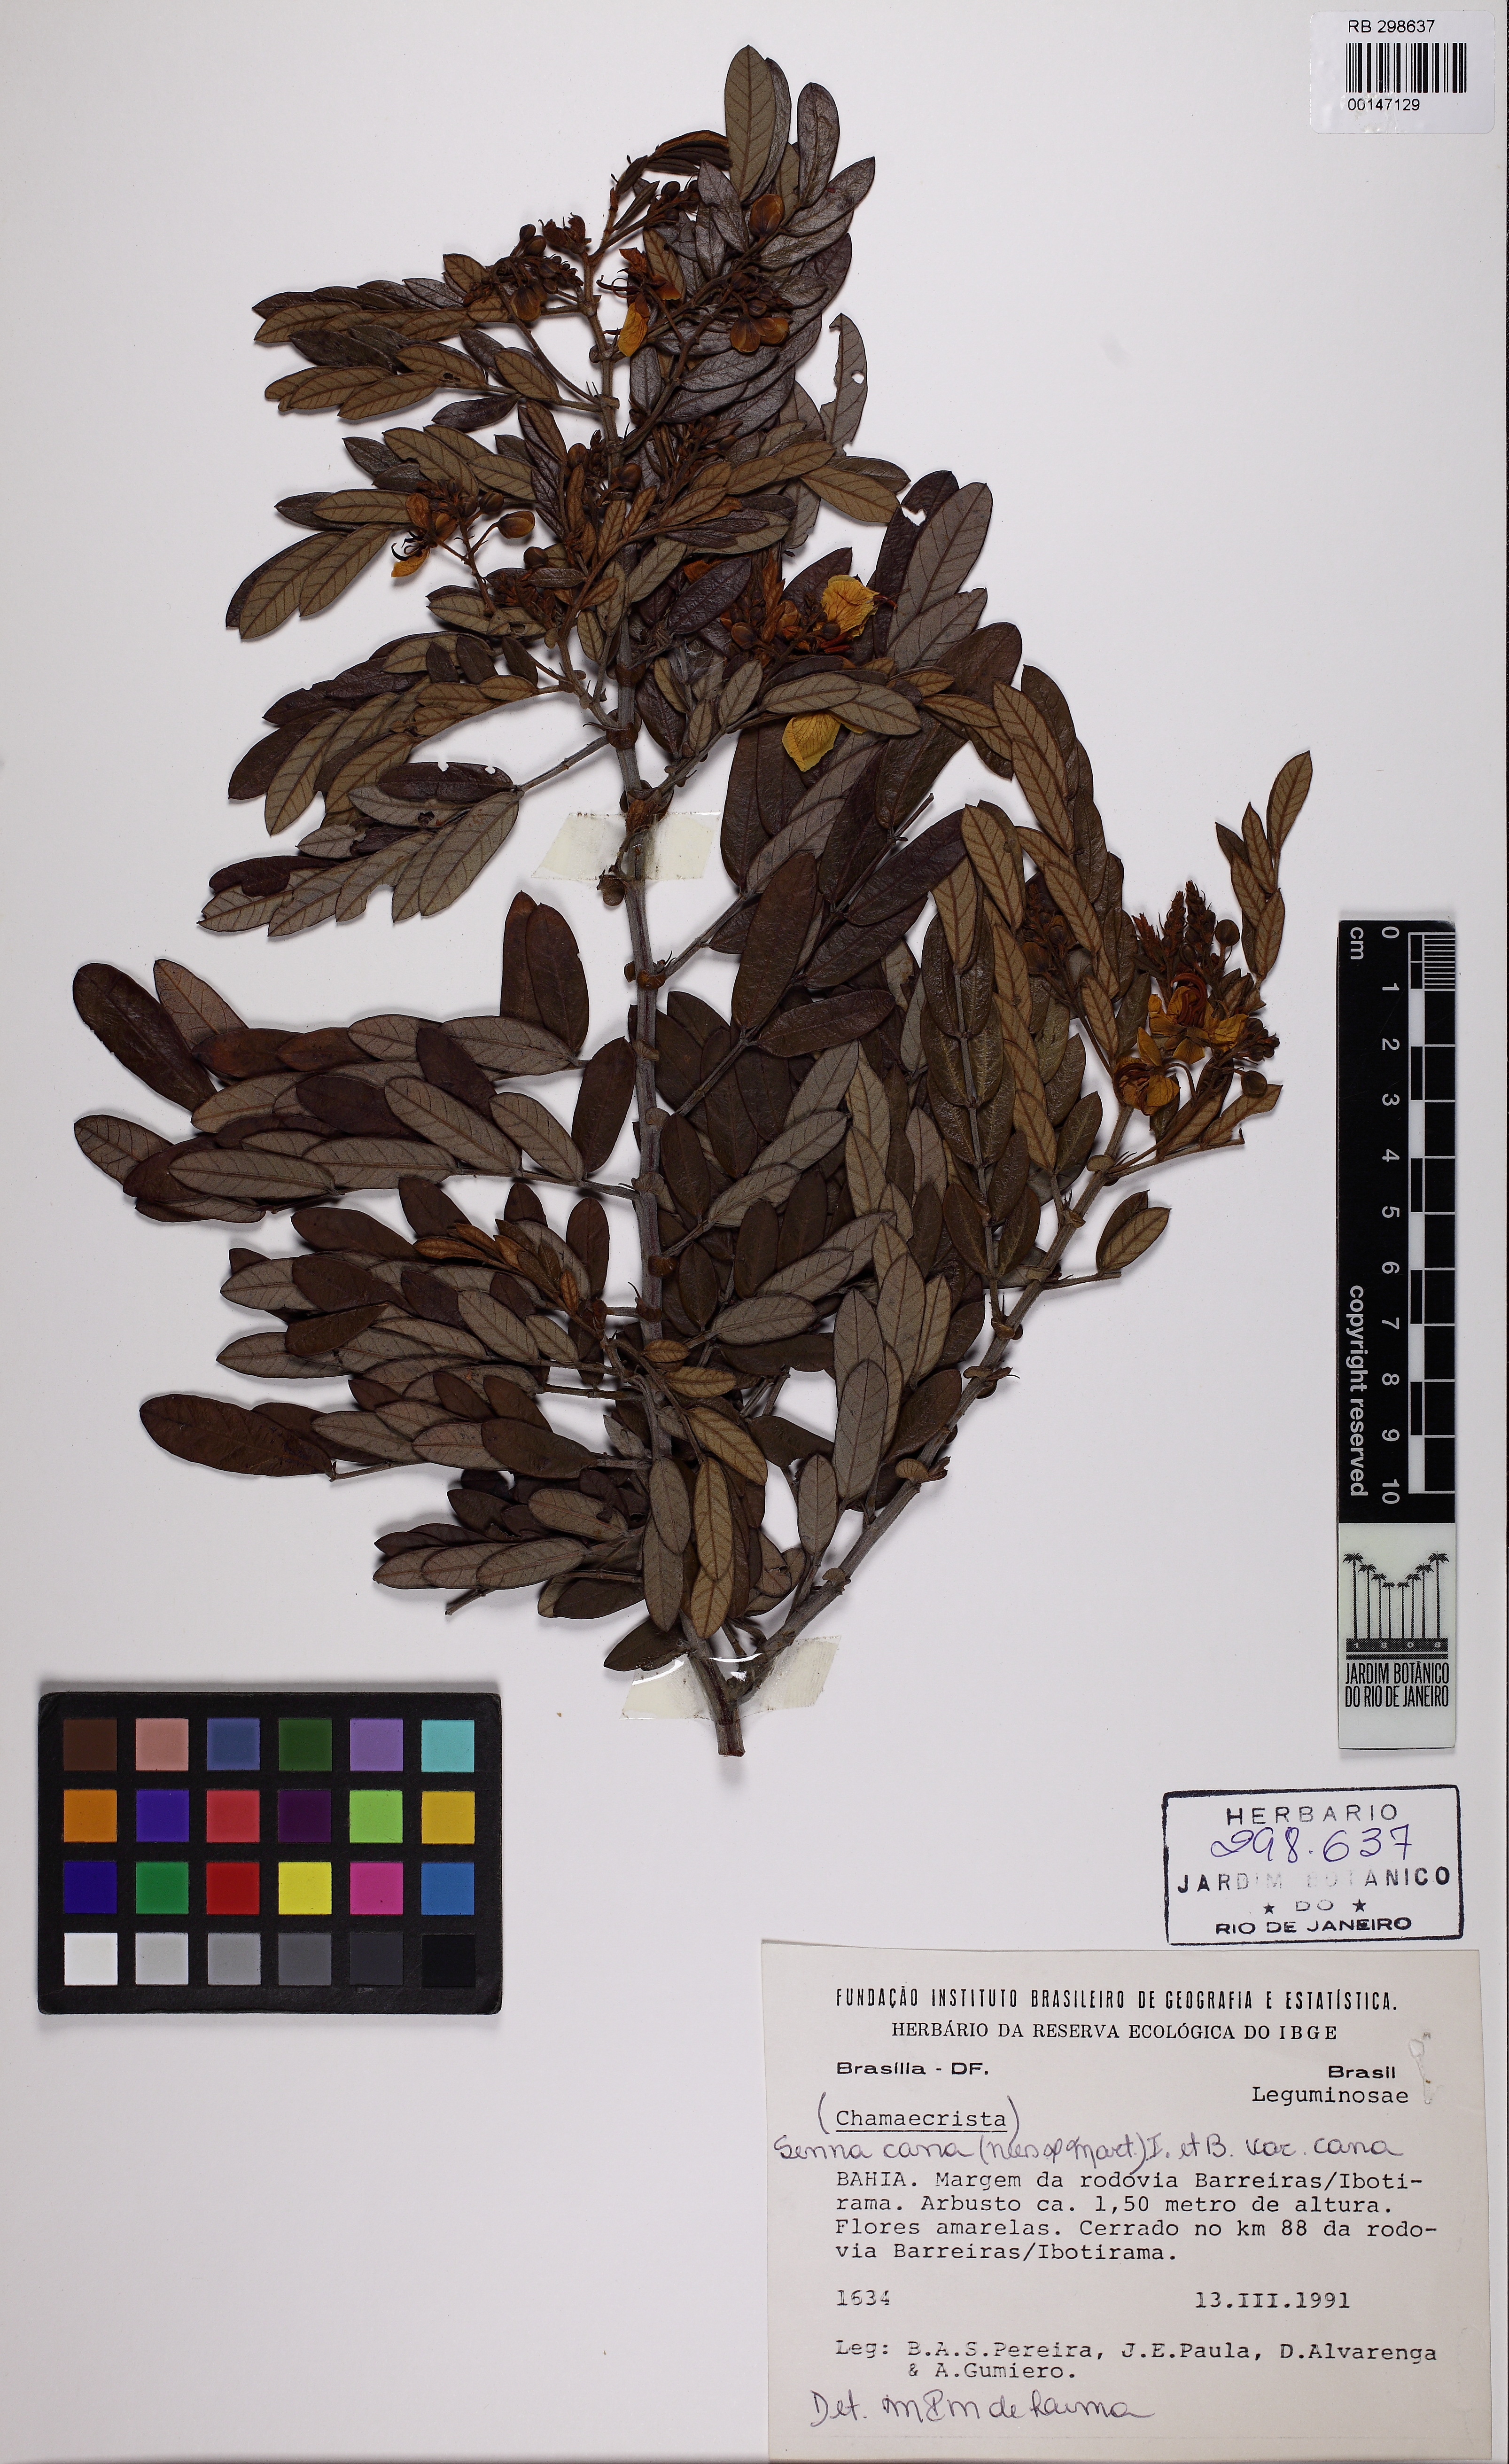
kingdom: Plantae
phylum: Tracheophyta
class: Magnoliopsida
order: Fabales
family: Fabaceae
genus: Senna
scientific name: Senna cana
